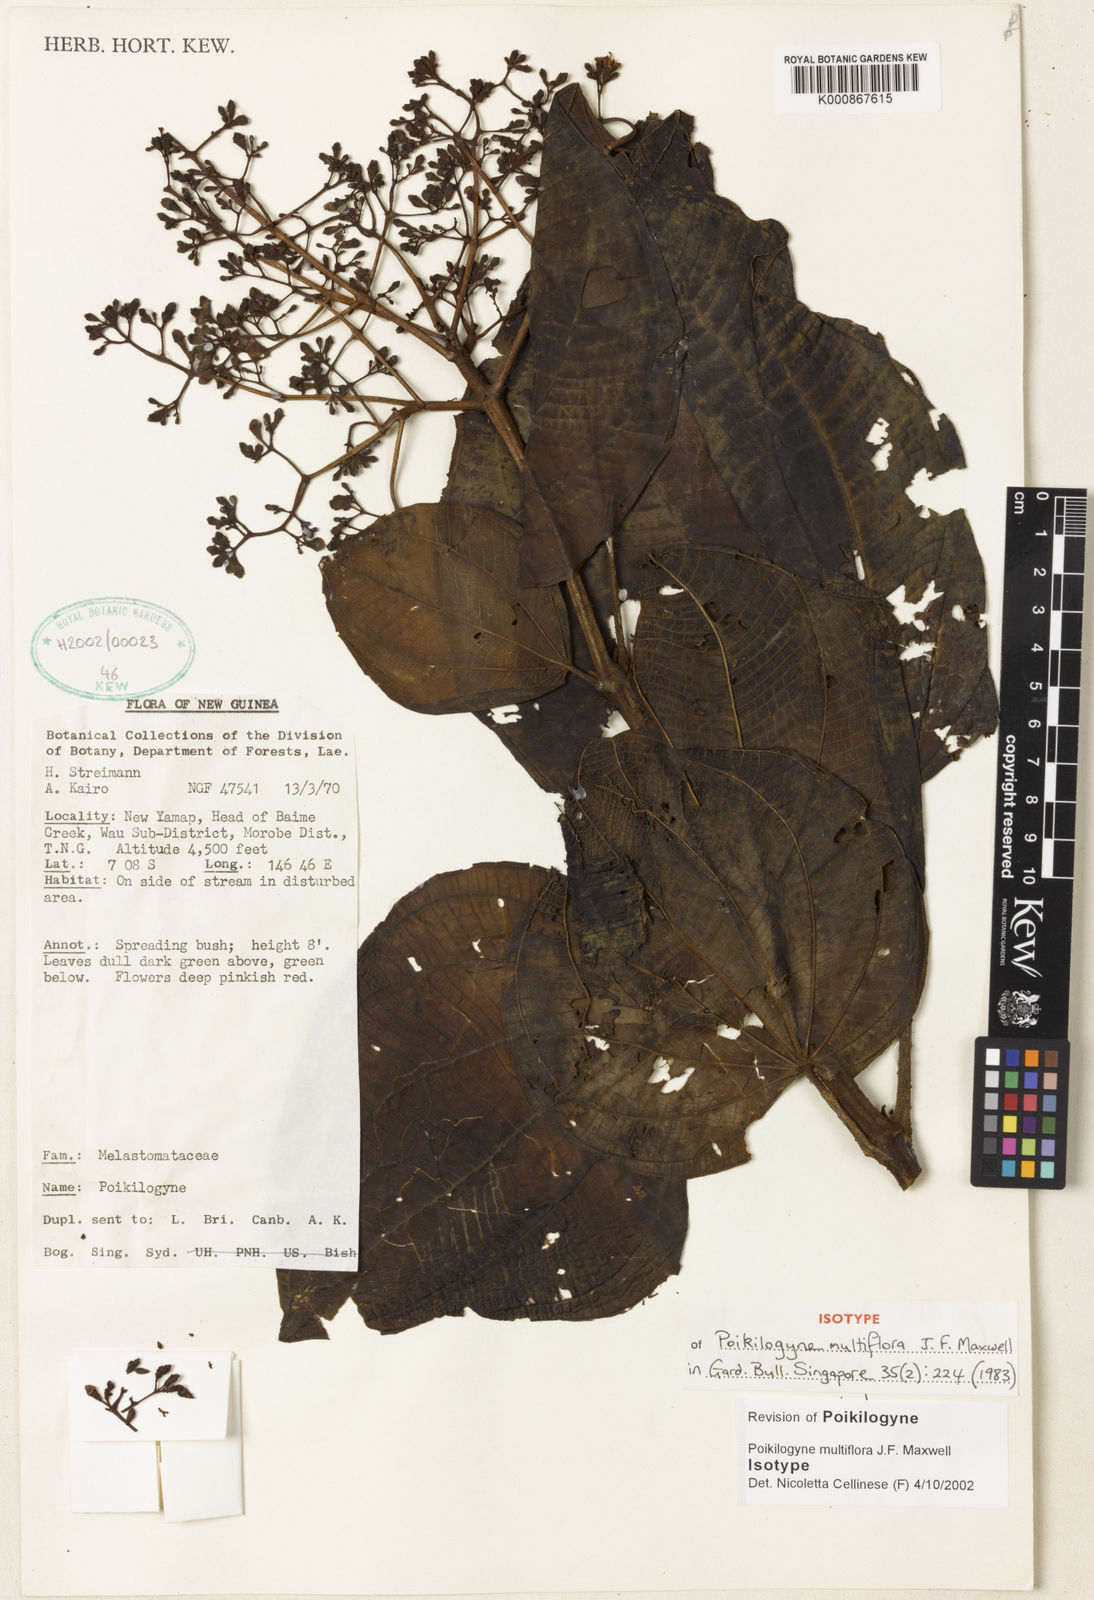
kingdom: Plantae
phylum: Tracheophyta
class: Magnoliopsida
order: Myrtales
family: Melastomataceae
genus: Poikilogyne
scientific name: Poikilogyne multiflora
